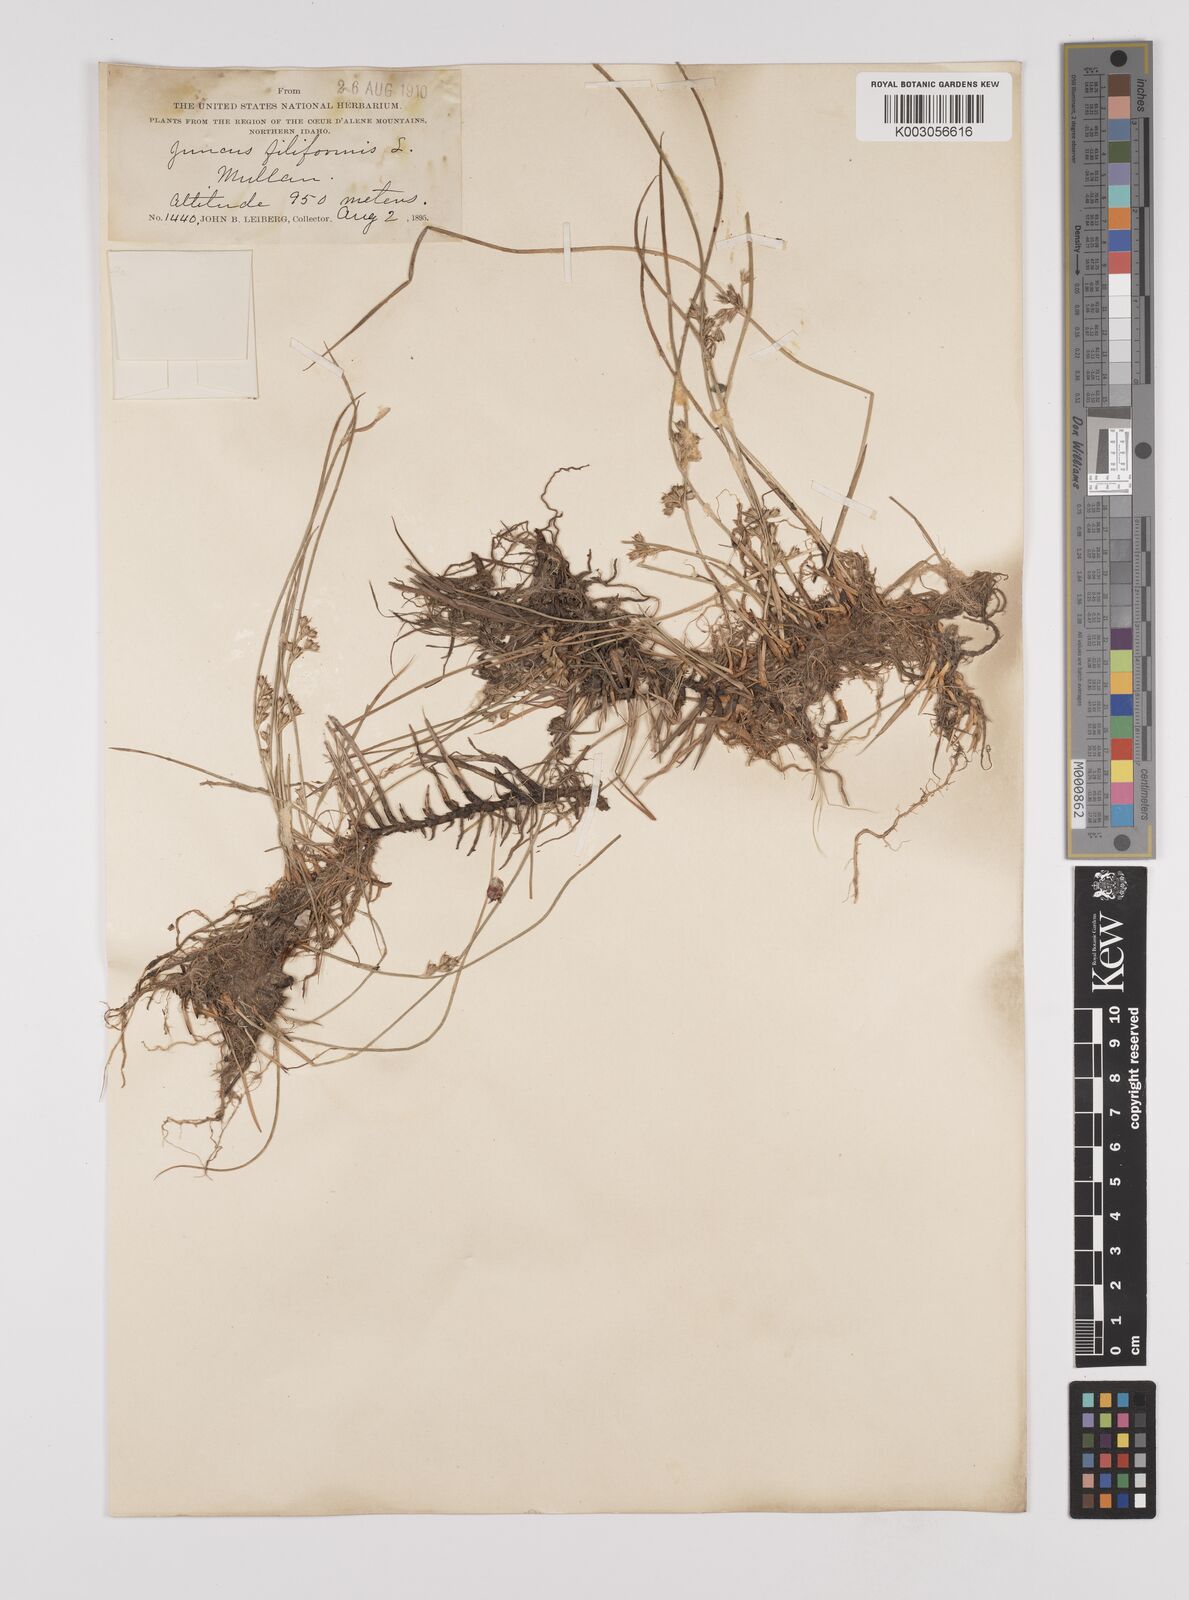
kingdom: Plantae
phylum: Tracheophyta
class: Liliopsida
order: Poales
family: Juncaceae
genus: Juncus
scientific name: Juncus filiformis
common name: Thread rush
